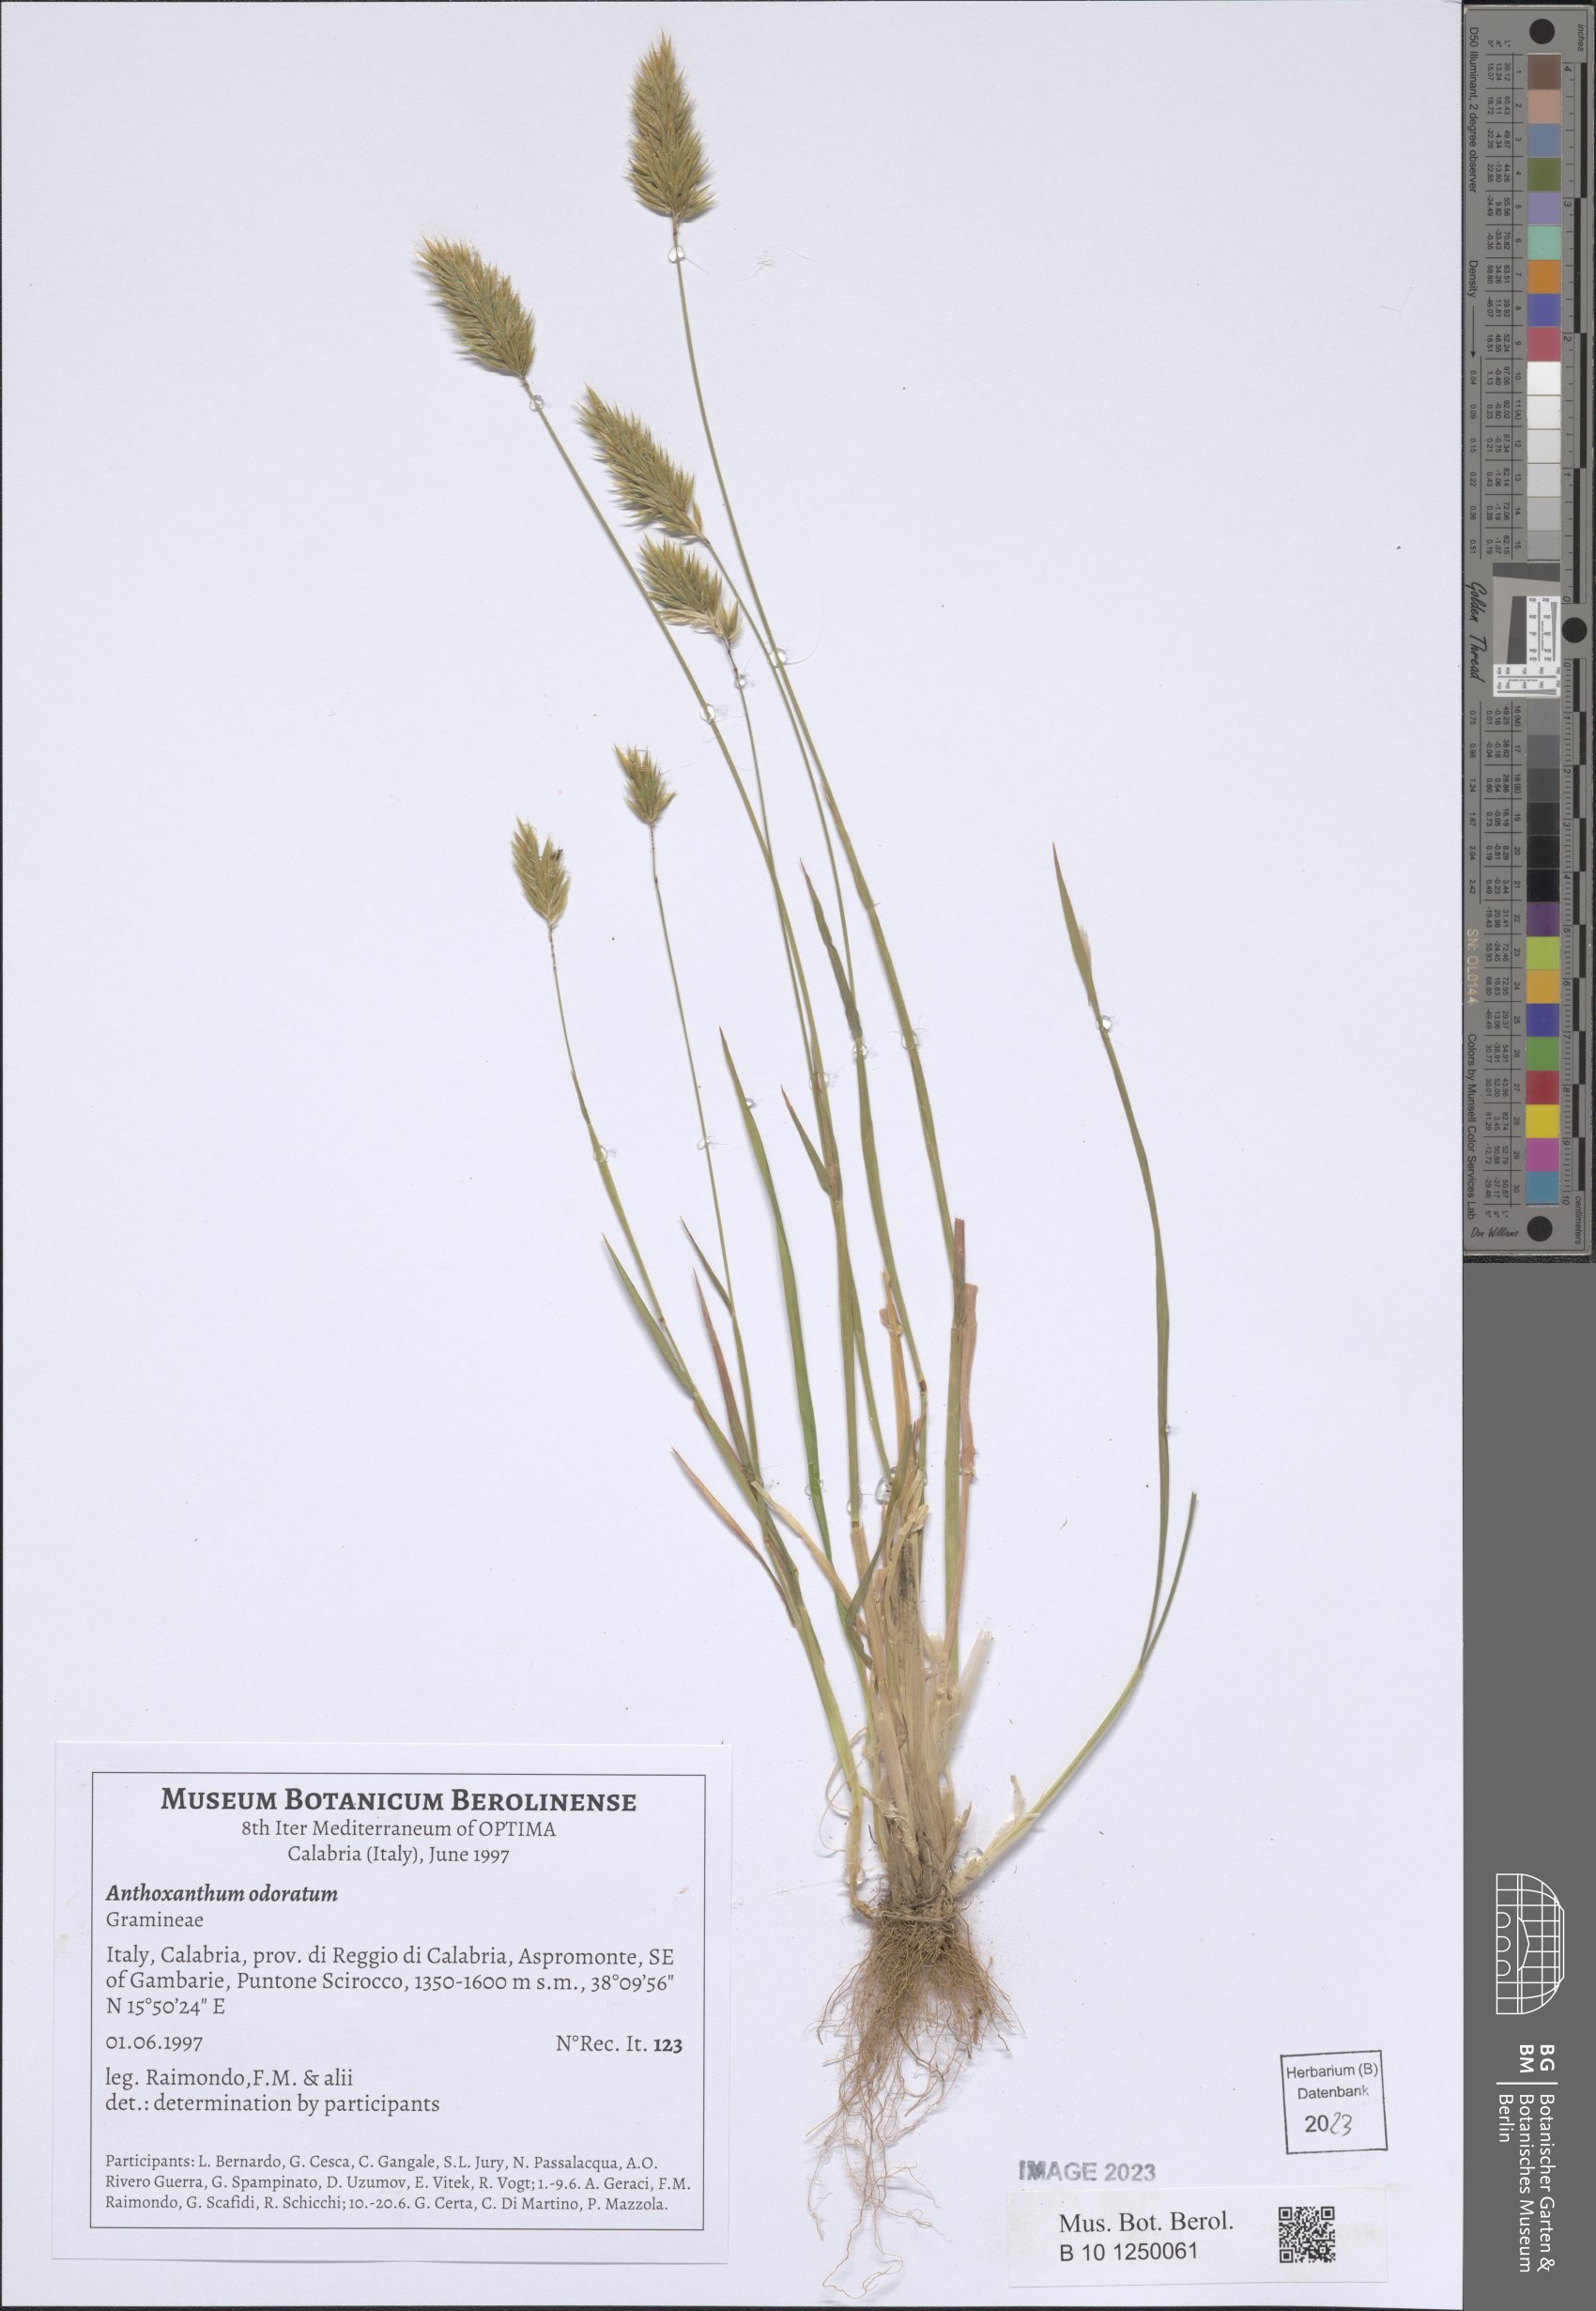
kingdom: Plantae
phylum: Tracheophyta
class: Liliopsida
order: Poales
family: Poaceae
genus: Anthoxanthum
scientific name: Anthoxanthum odoratum
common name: Sweet vernalgrass
